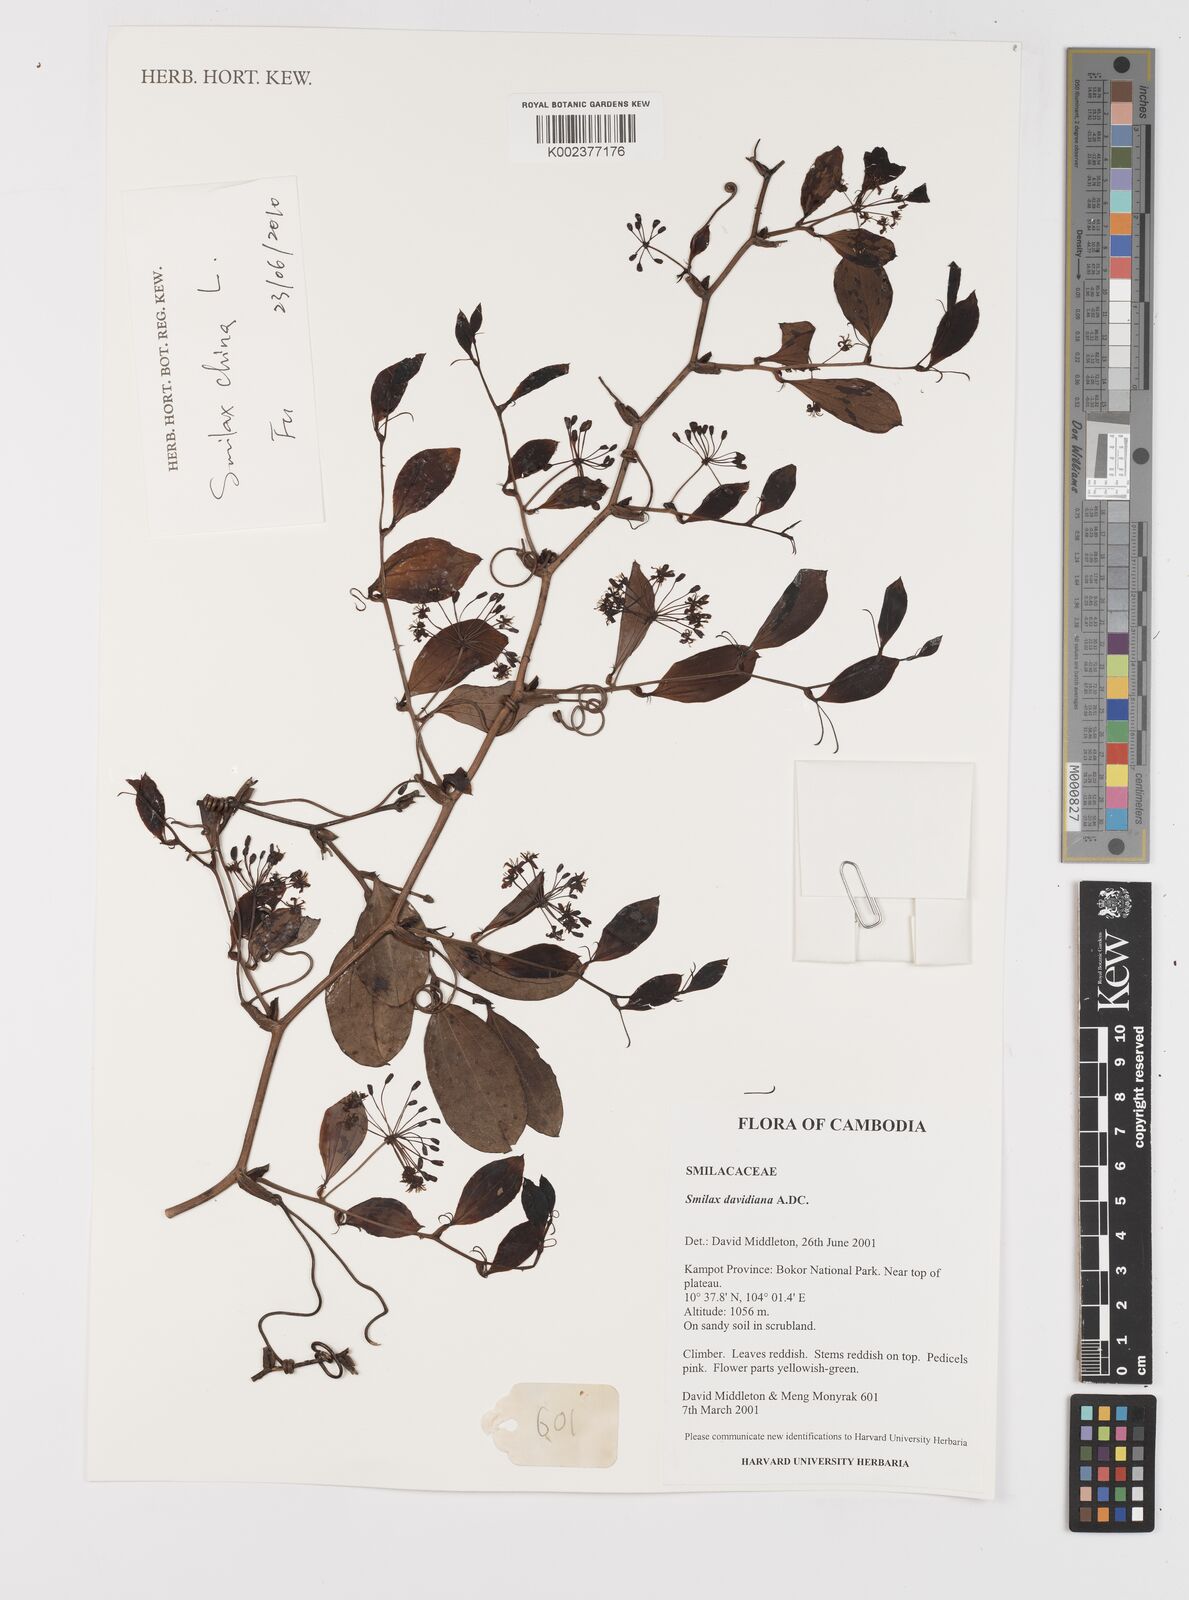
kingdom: Plantae
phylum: Tracheophyta
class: Liliopsida
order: Liliales
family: Smilacaceae
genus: Smilax
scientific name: Smilax davidiana
